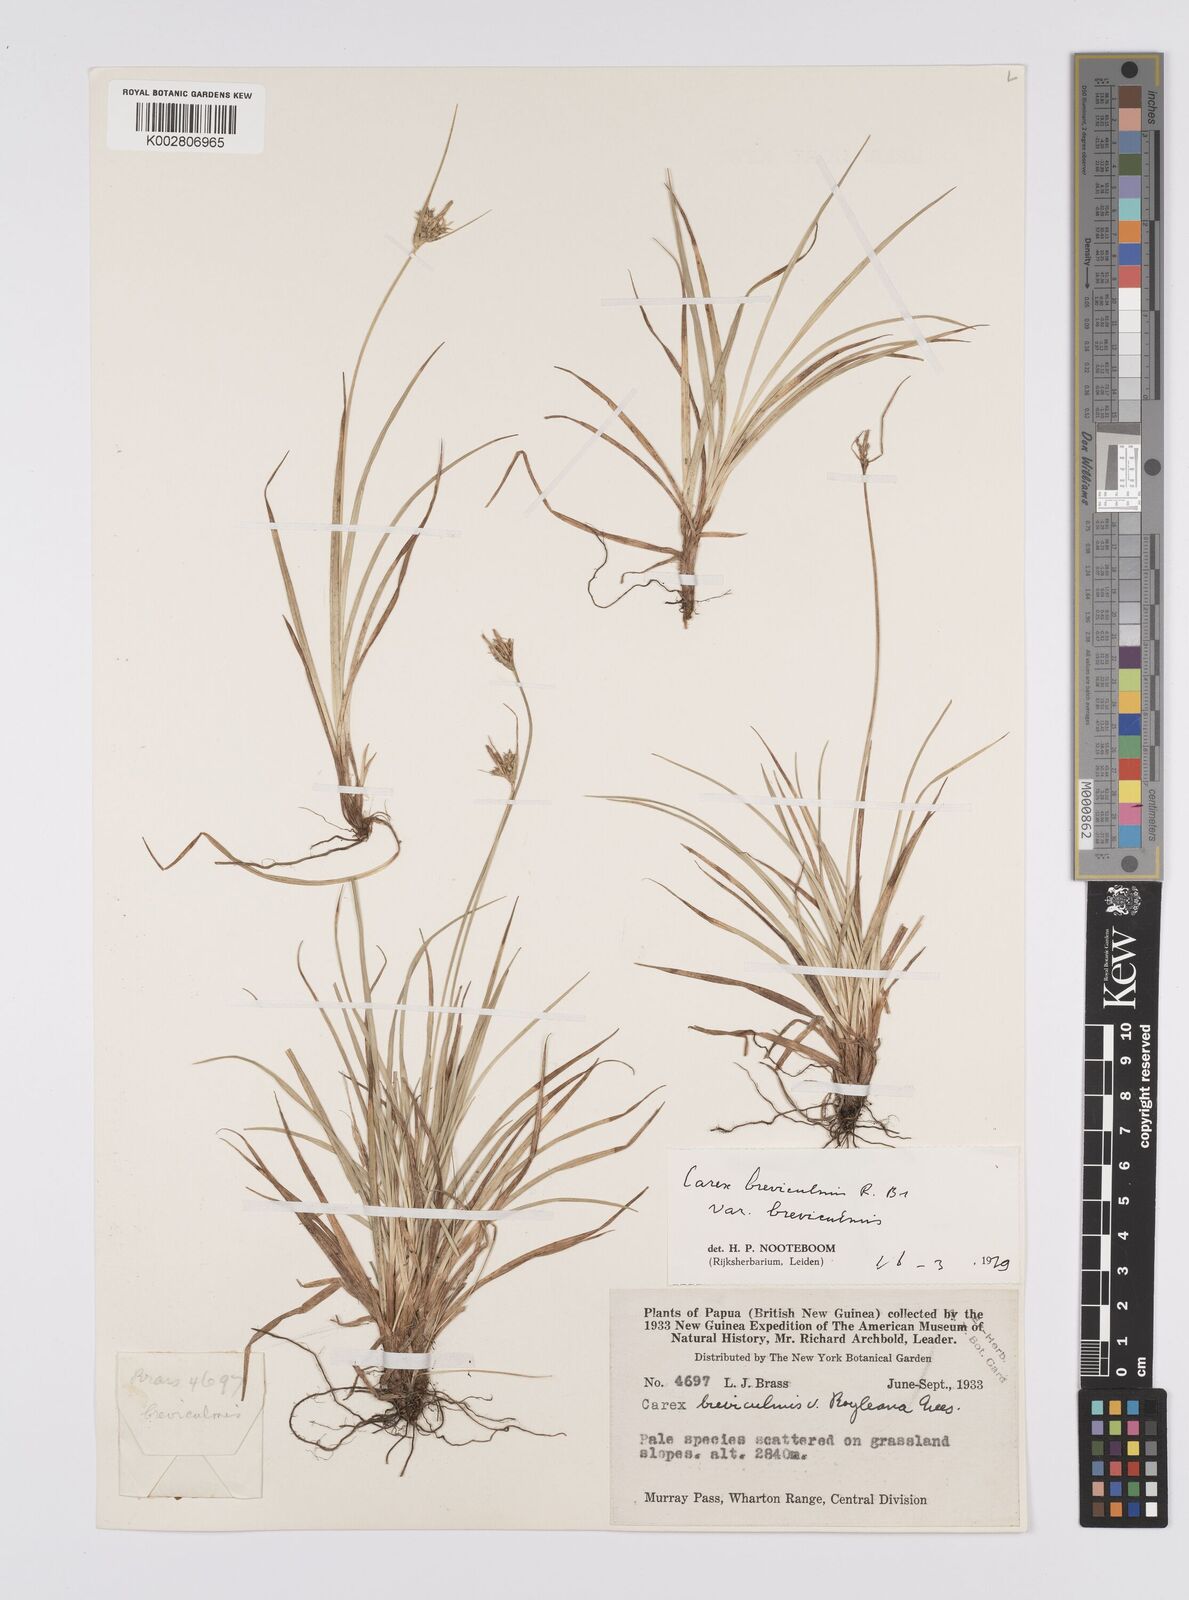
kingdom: Plantae
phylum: Tracheophyta
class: Liliopsida
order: Poales
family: Cyperaceae
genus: Carex
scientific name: Carex breviculmis
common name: Asian shortstem sedge
